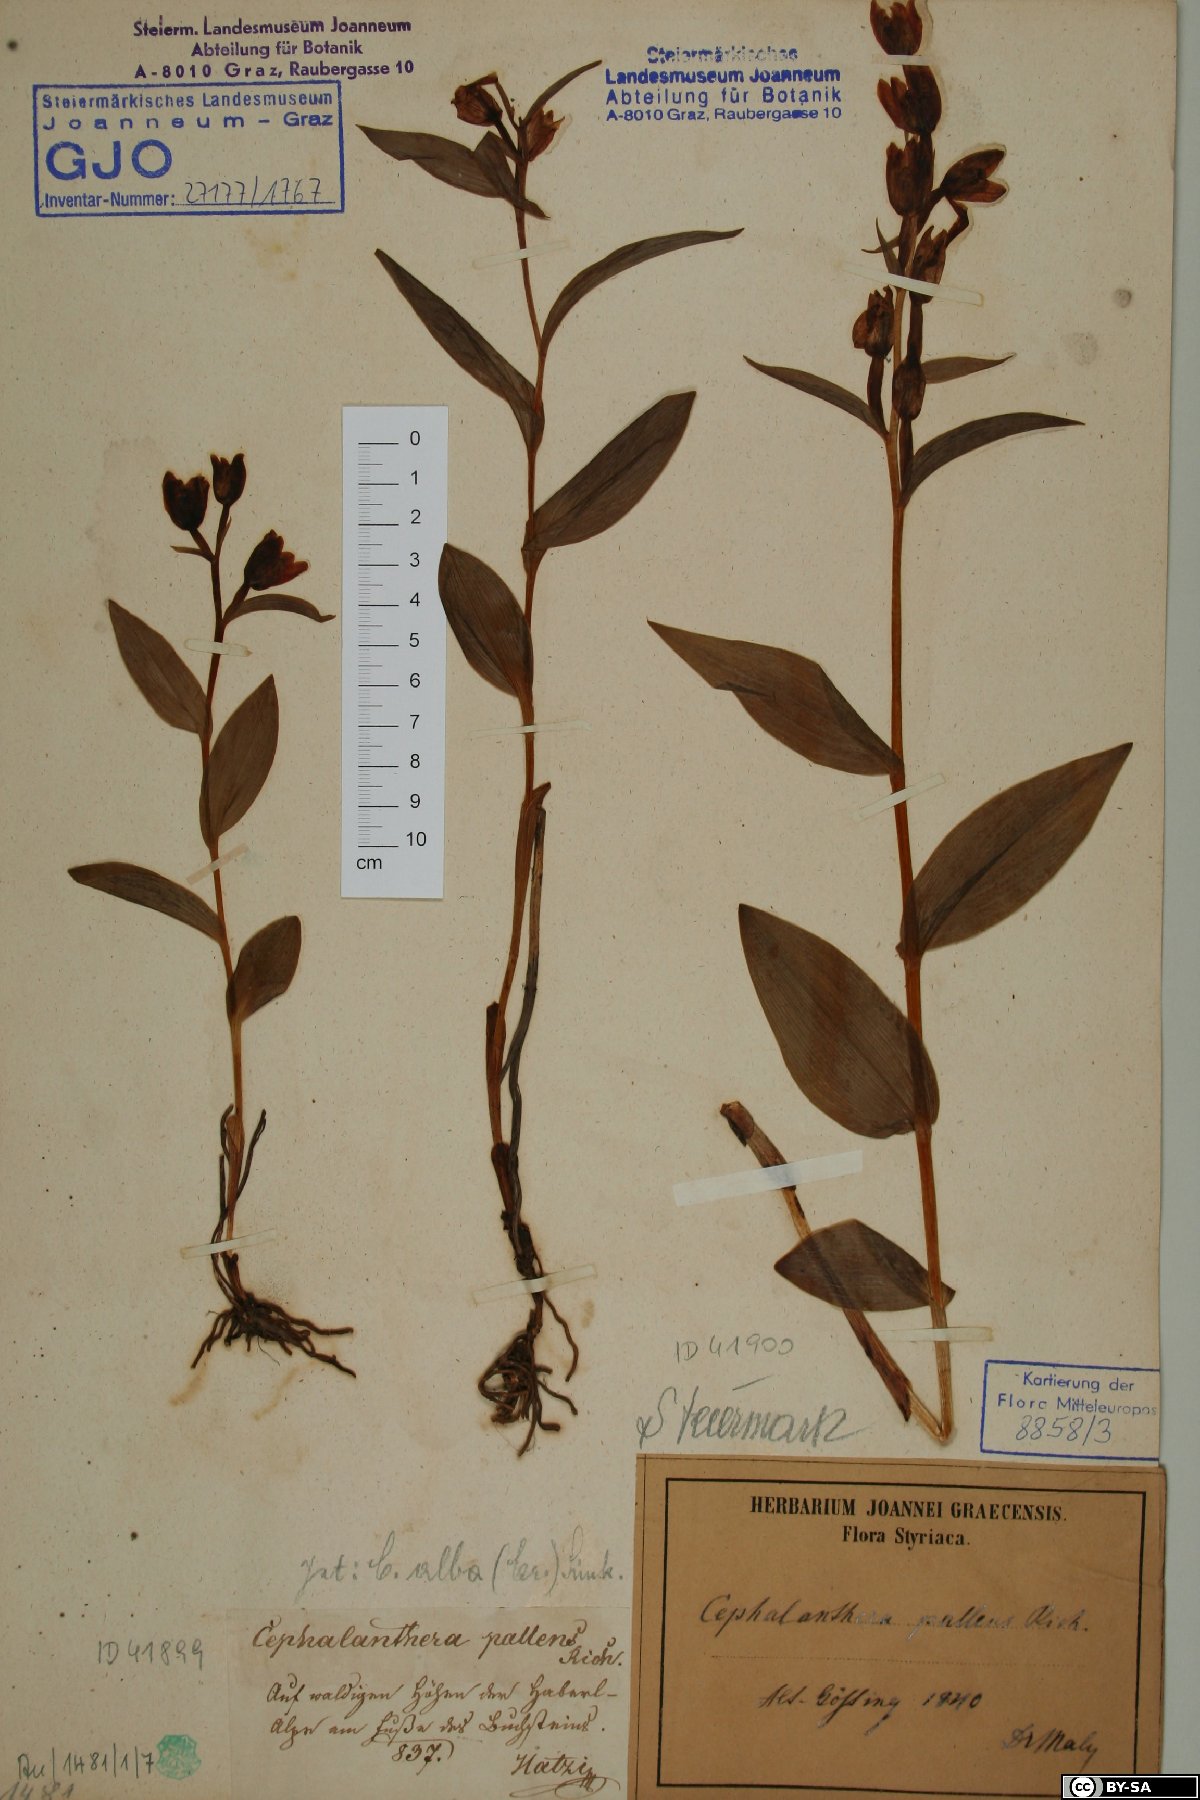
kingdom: Plantae
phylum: Tracheophyta
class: Liliopsida
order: Asparagales
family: Orchidaceae
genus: Cephalanthera
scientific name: Cephalanthera longifolia
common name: Narrow-leaved helleborine
